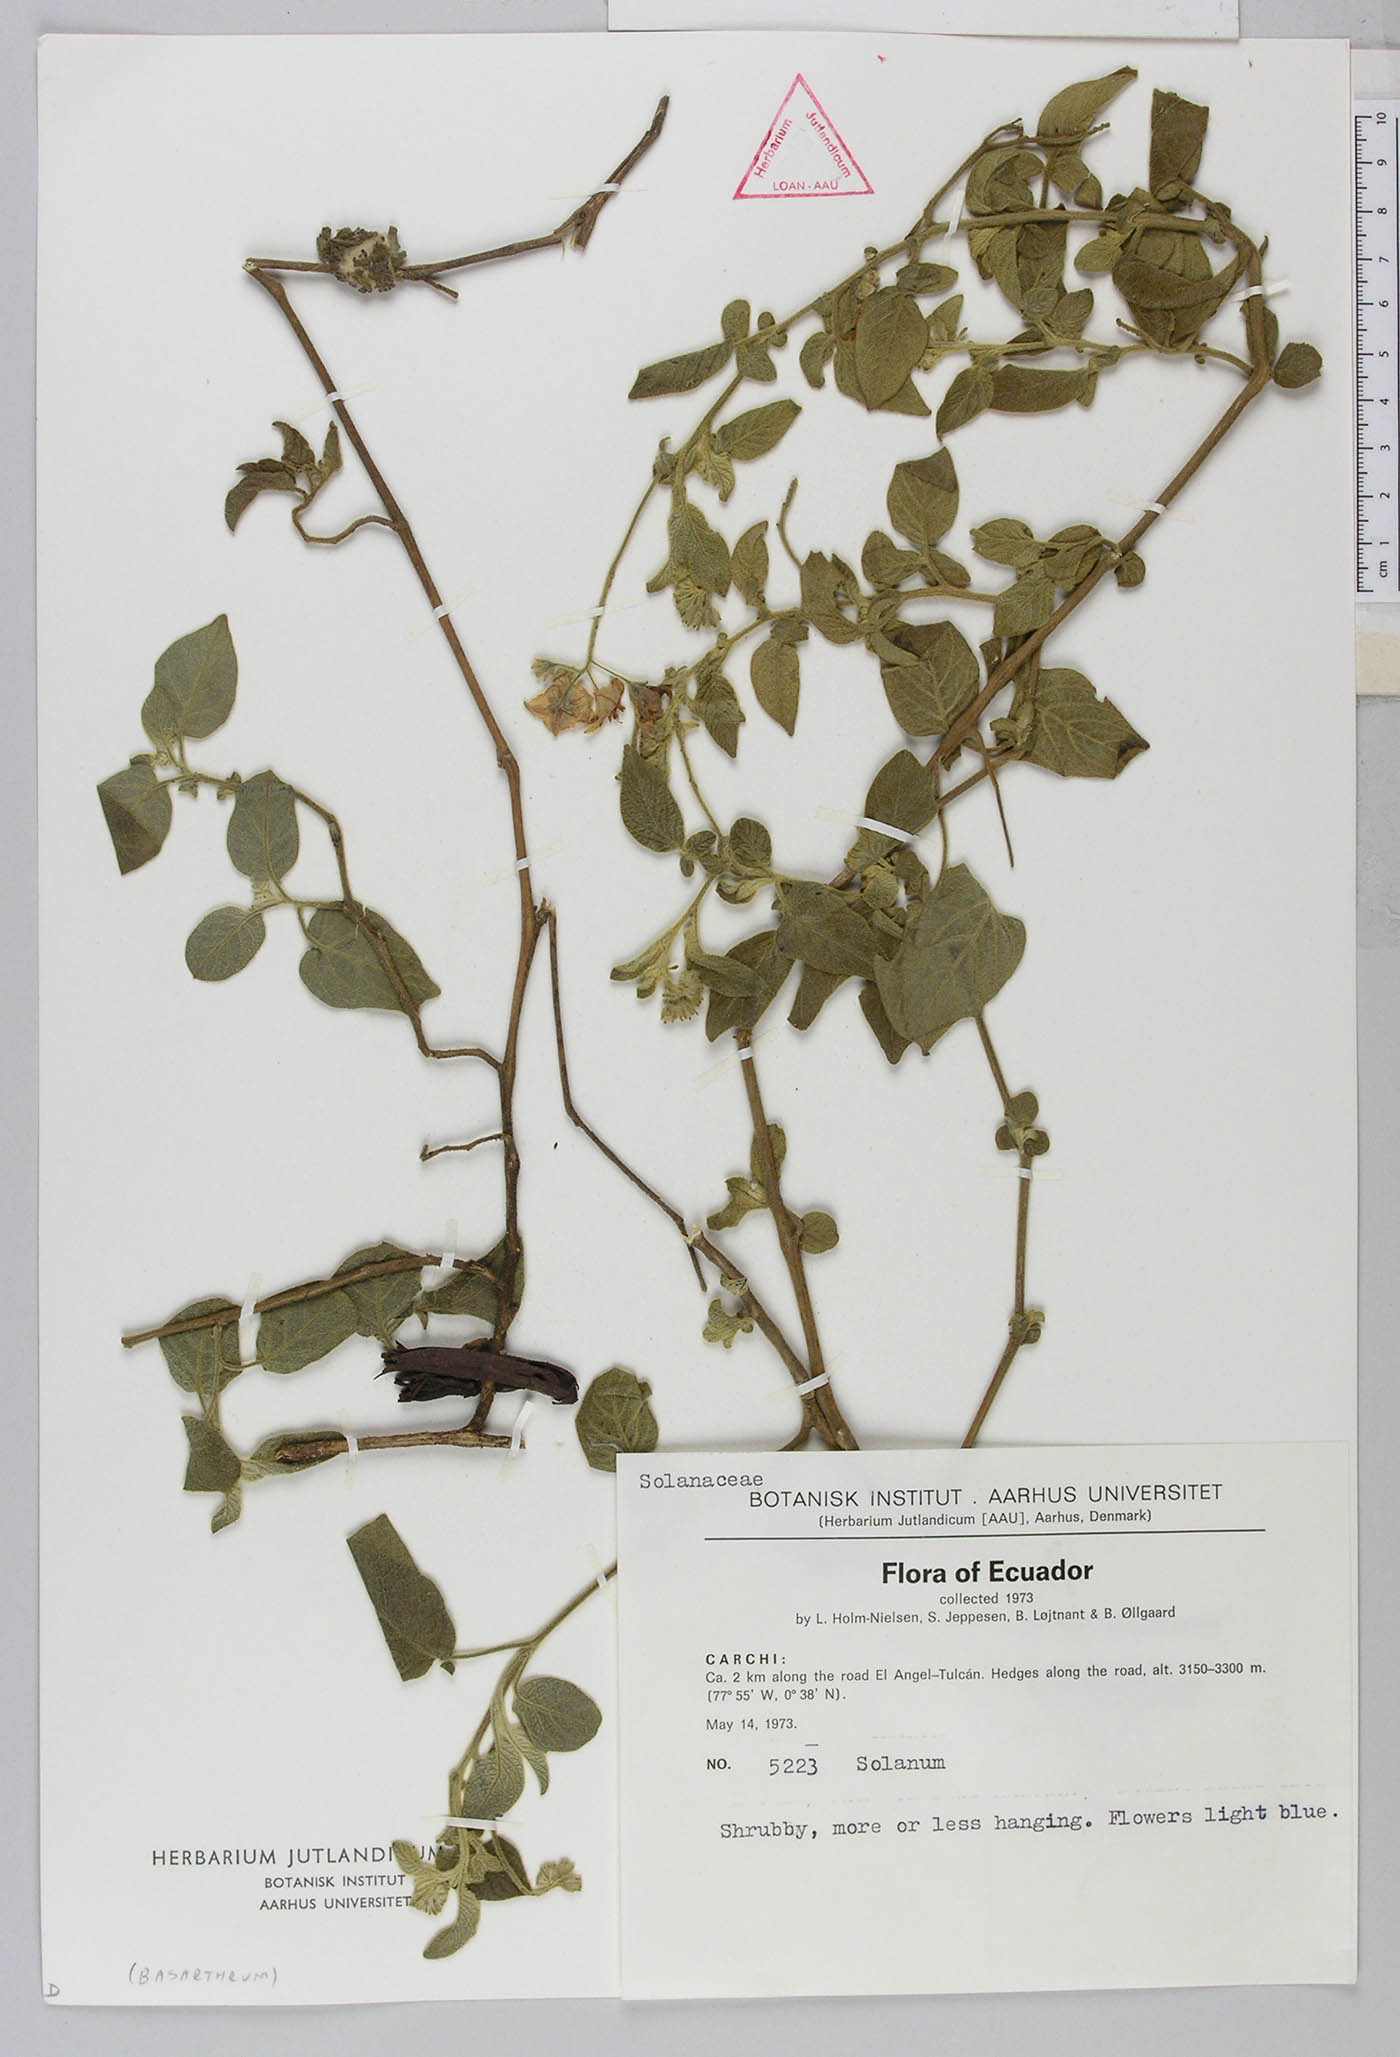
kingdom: Plantae
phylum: Tracheophyta
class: Magnoliopsida
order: Solanales
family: Solanaceae
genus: Solanum
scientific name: Solanum caripense
